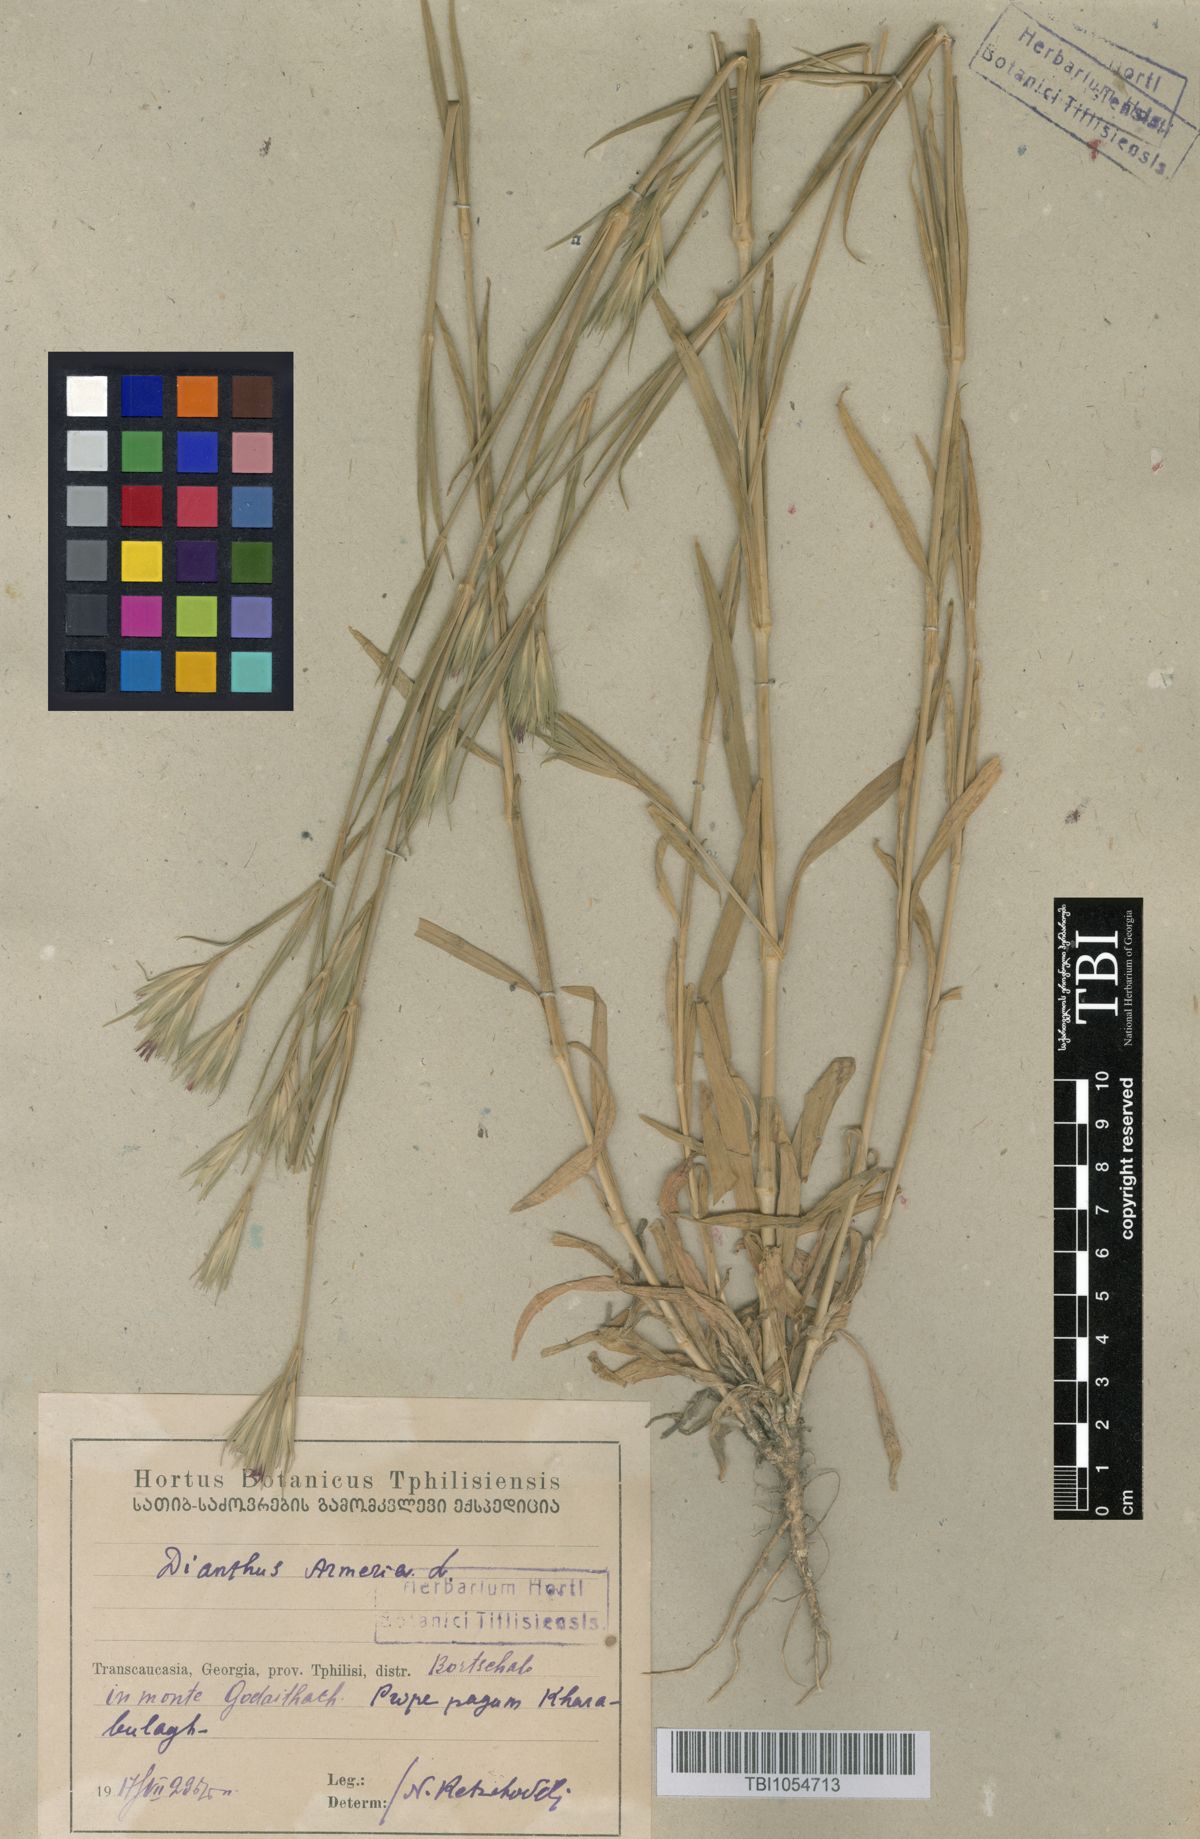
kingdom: Plantae
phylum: Tracheophyta
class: Magnoliopsida
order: Caryophyllales
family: Caryophyllaceae
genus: Dianthus
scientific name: Dianthus armeria
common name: Deptford pink
